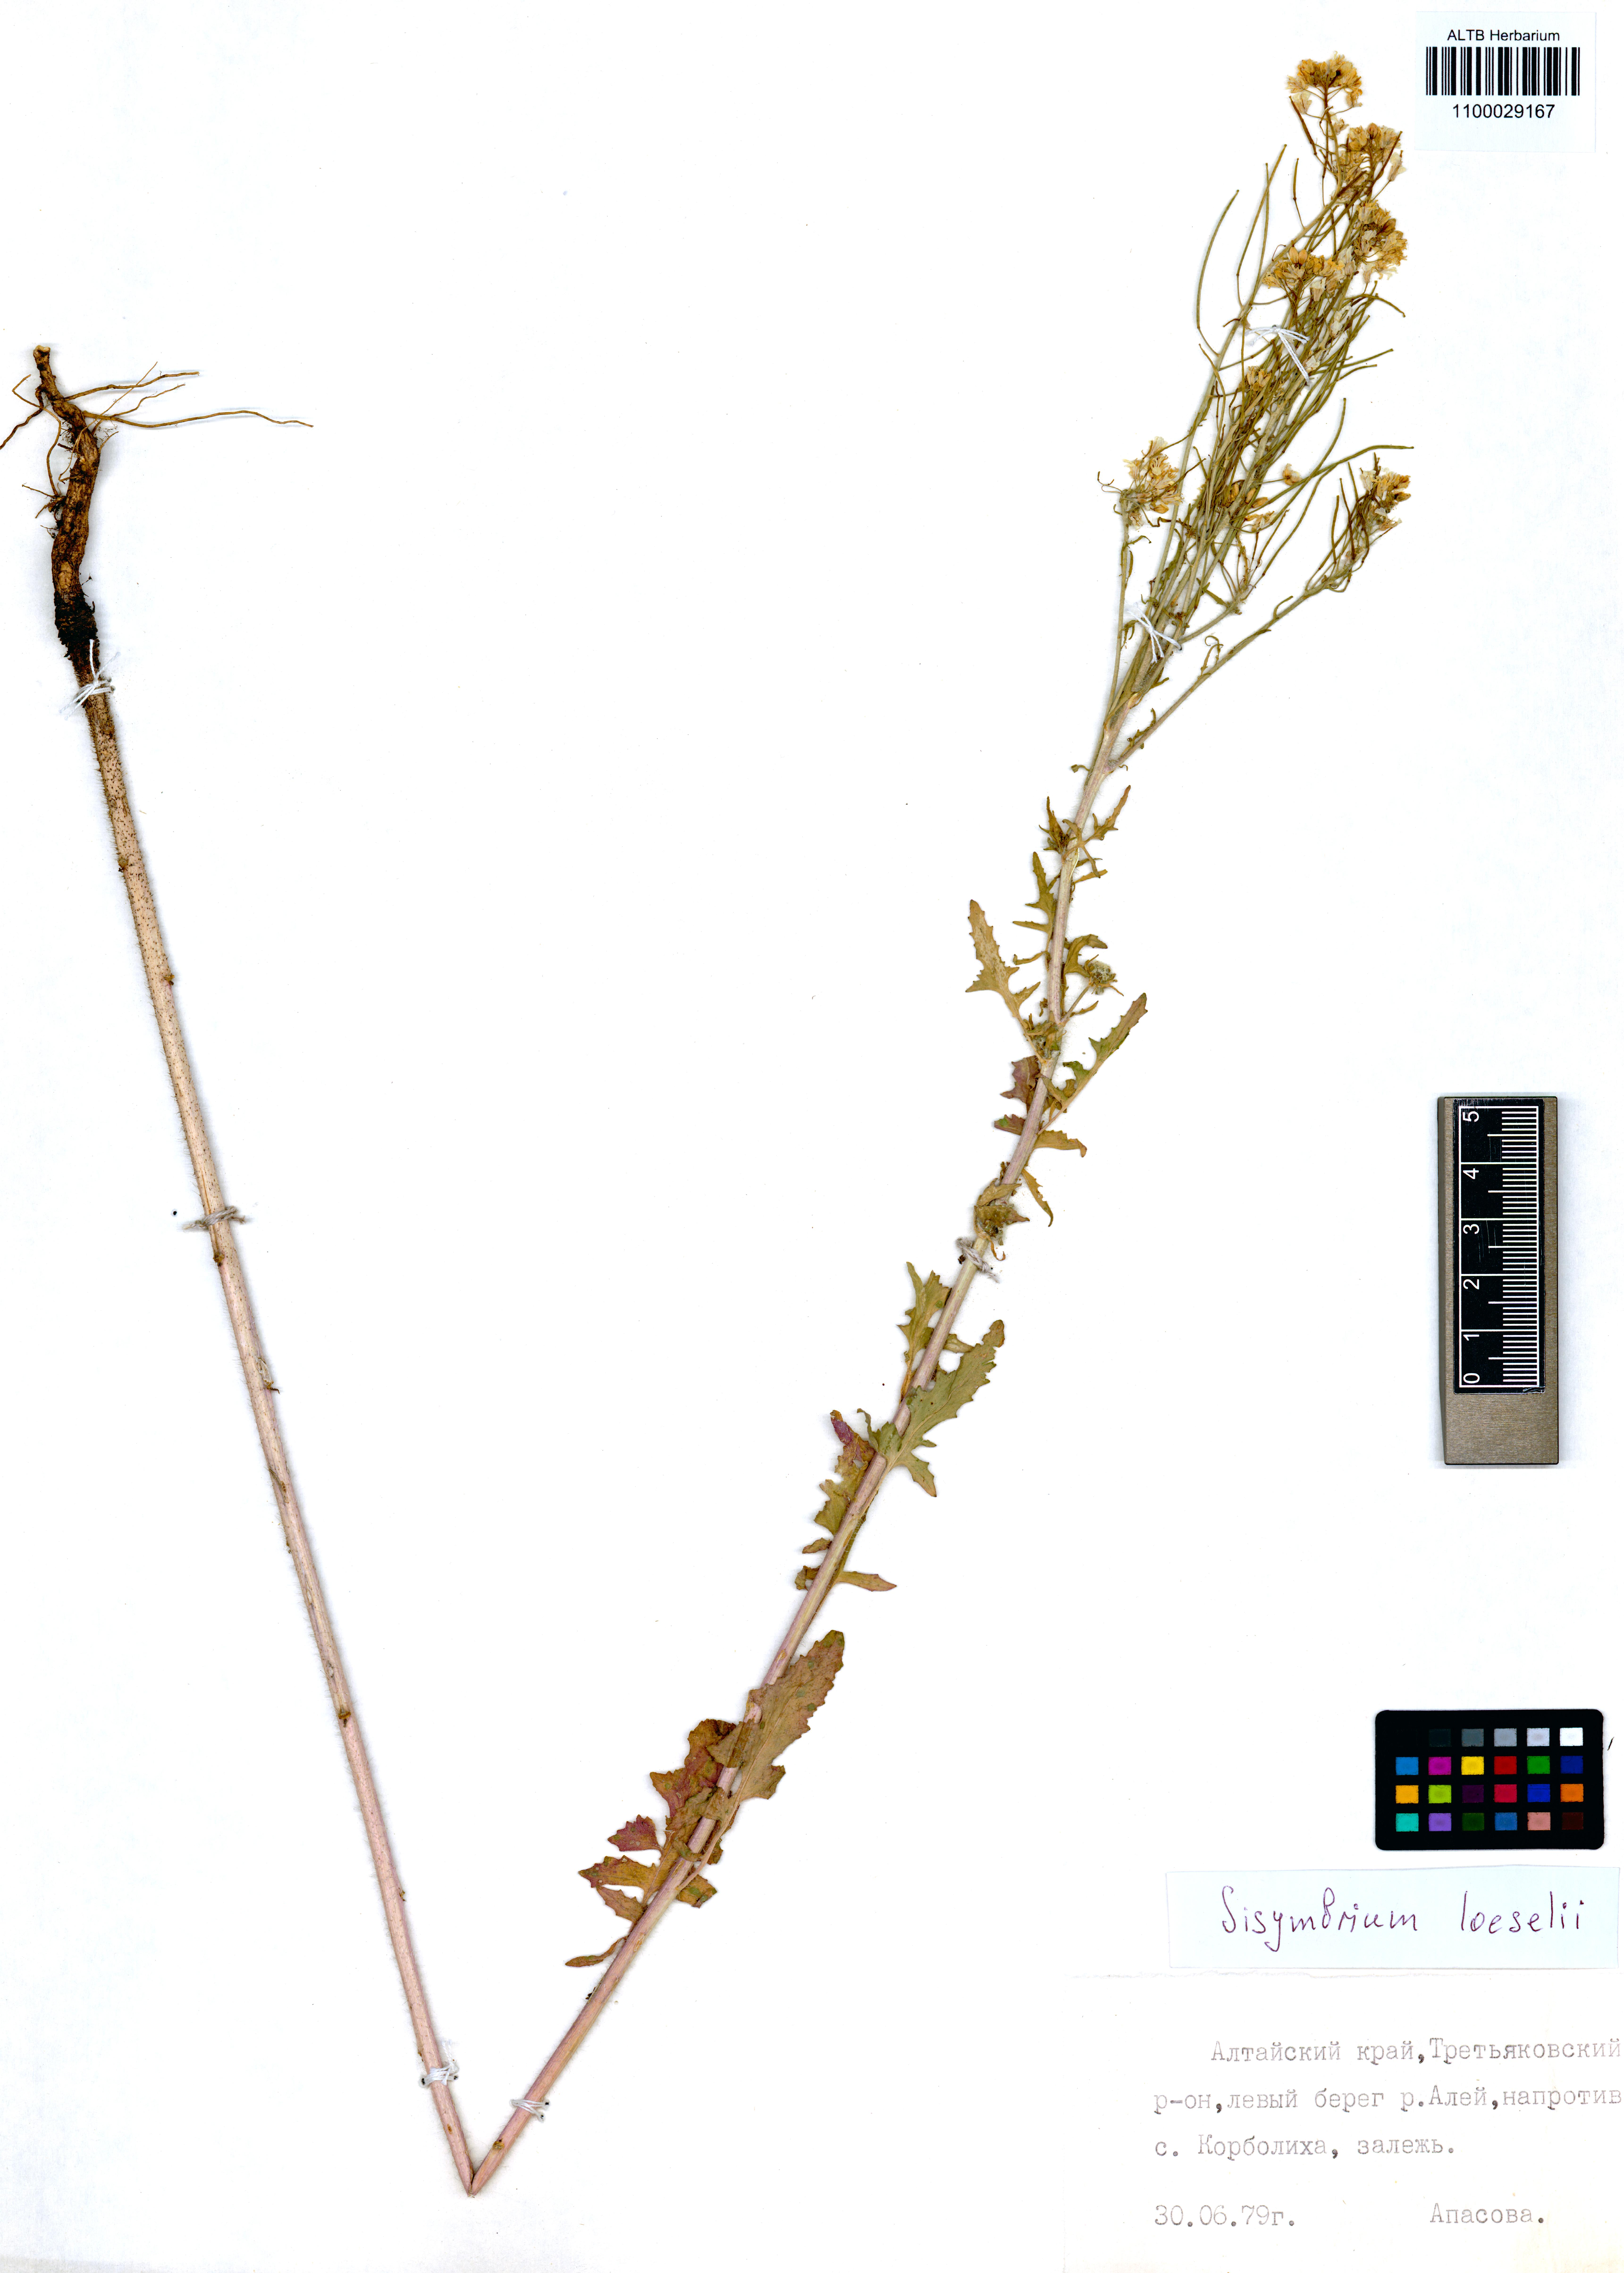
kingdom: Plantae
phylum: Tracheophyta
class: Magnoliopsida
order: Brassicales
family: Brassicaceae
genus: Sisymbrium
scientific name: Sisymbrium loeselii
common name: False london-rocket
